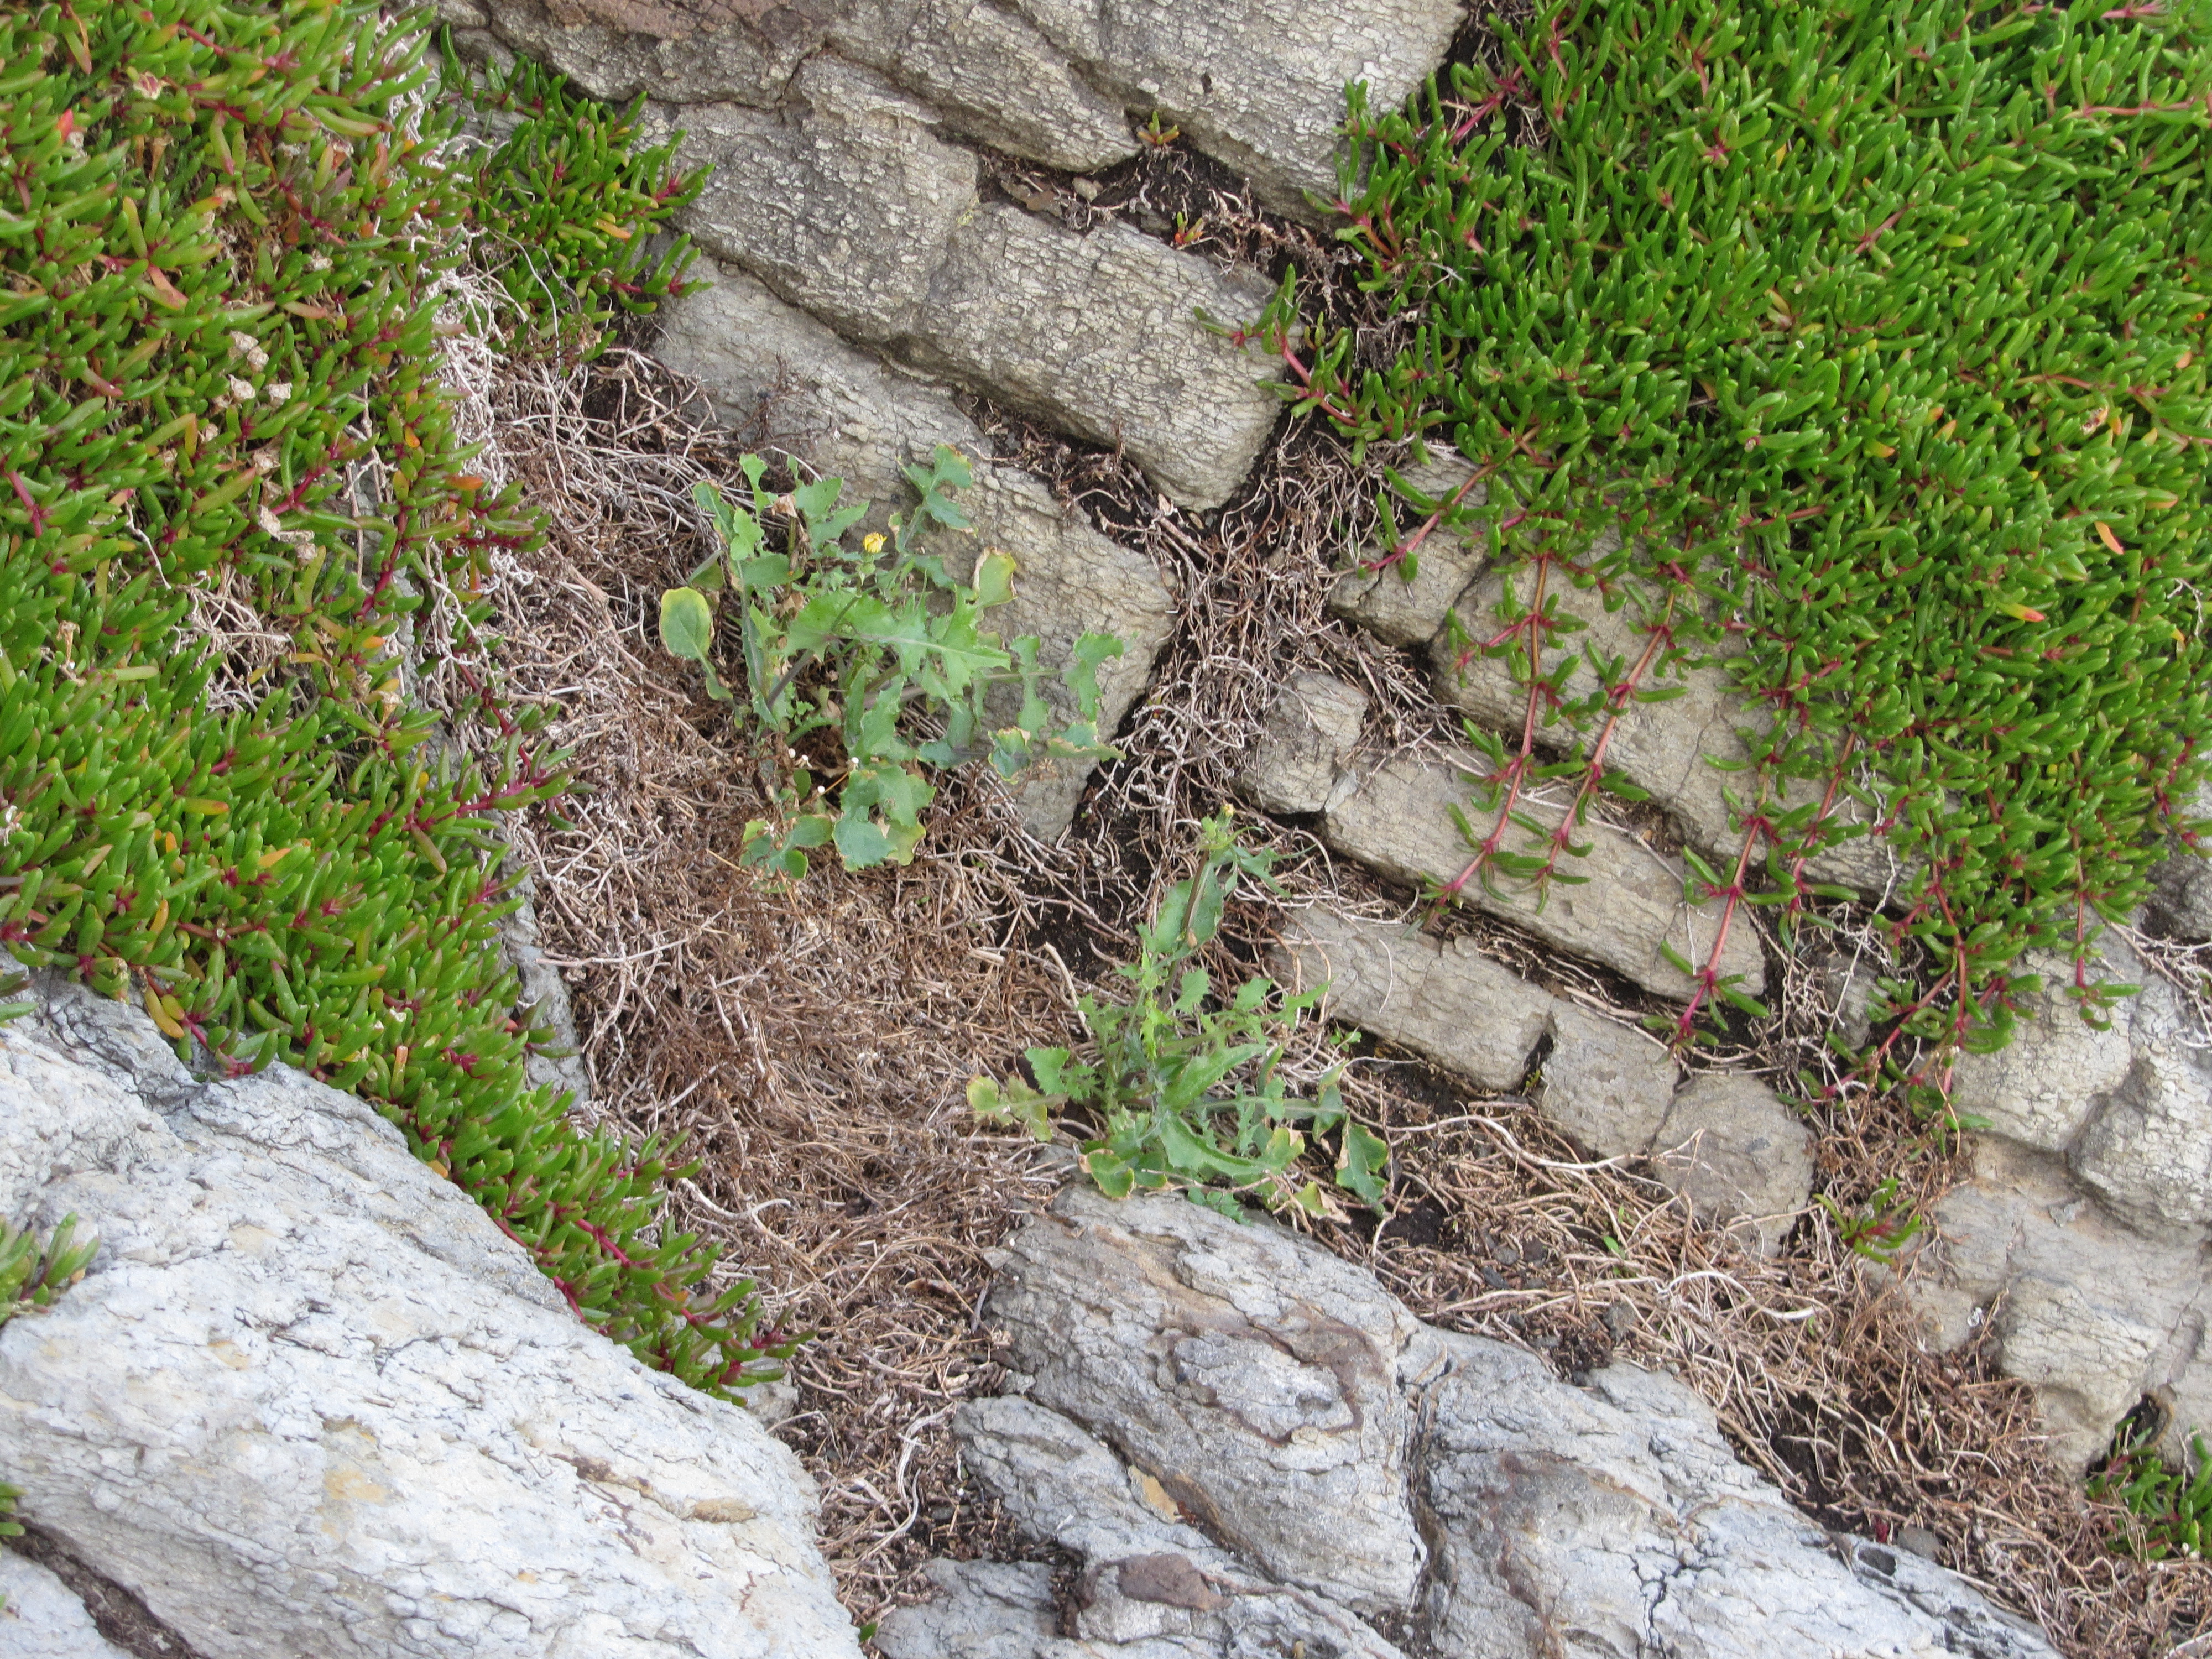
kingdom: Plantae
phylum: Tracheophyta
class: Magnoliopsida
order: Asterales
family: Asteraceae
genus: Sonchus
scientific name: Sonchus oleraceus
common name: Common sowthistle
